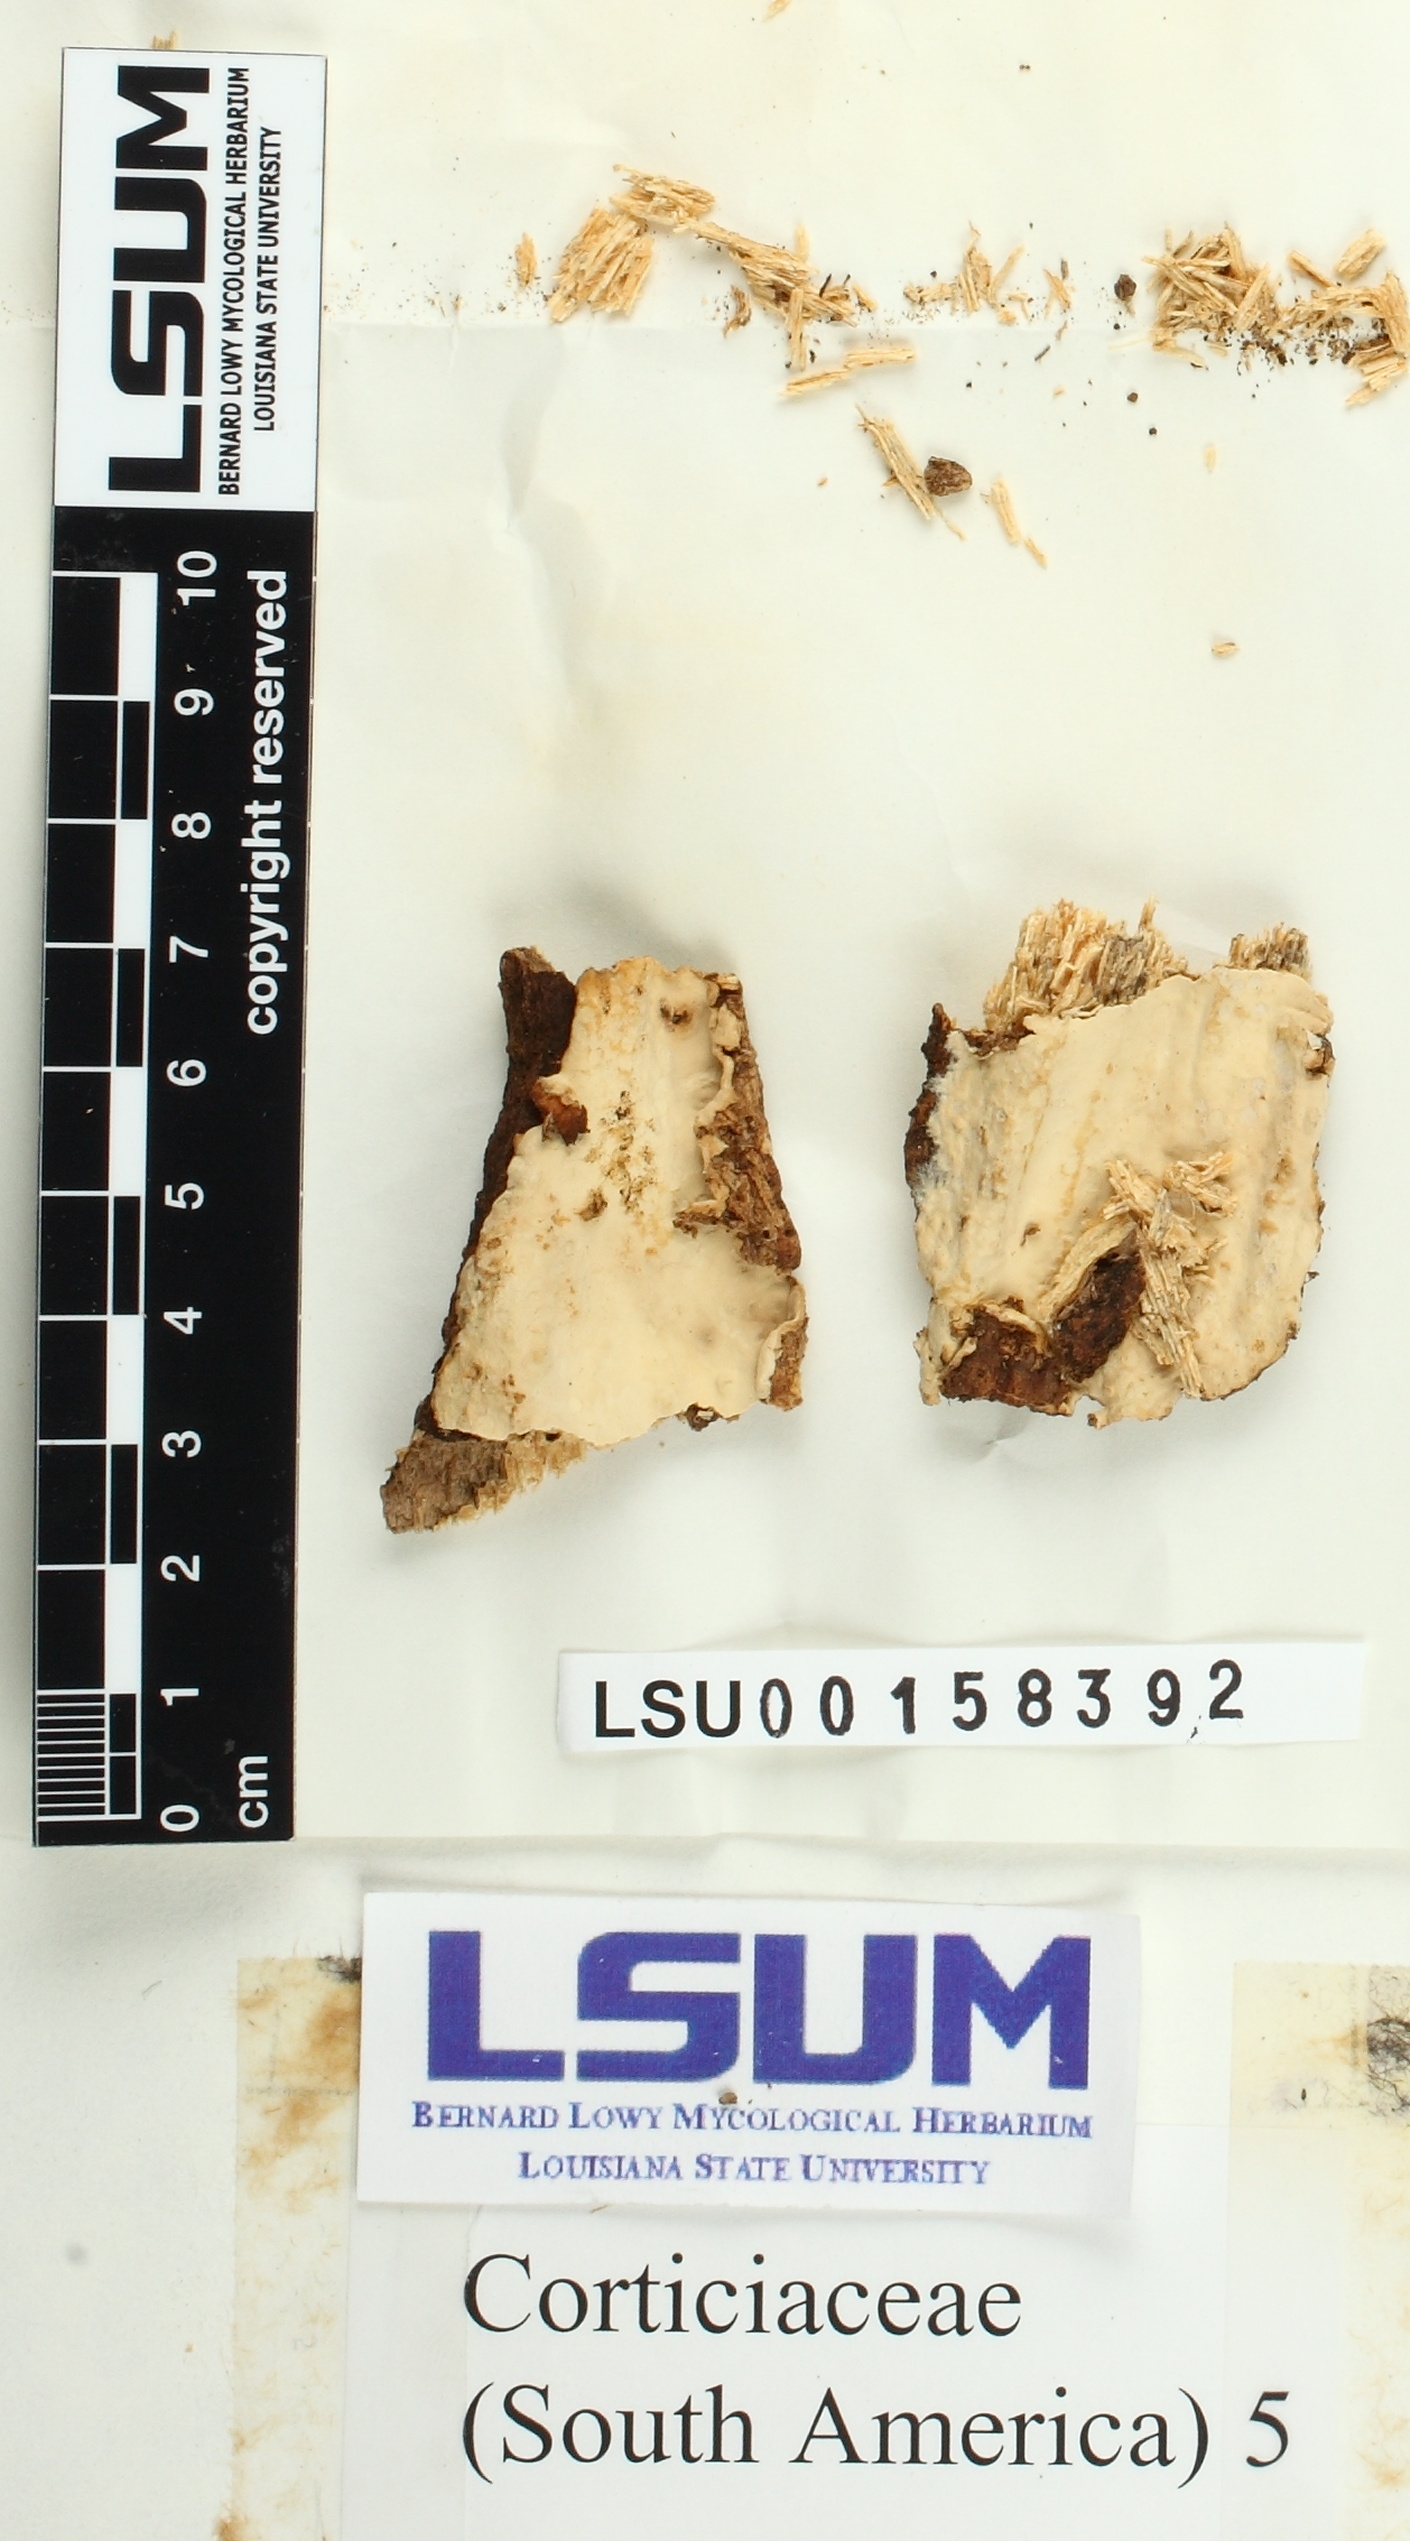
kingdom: Fungi
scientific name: Fungi
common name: Fungi
